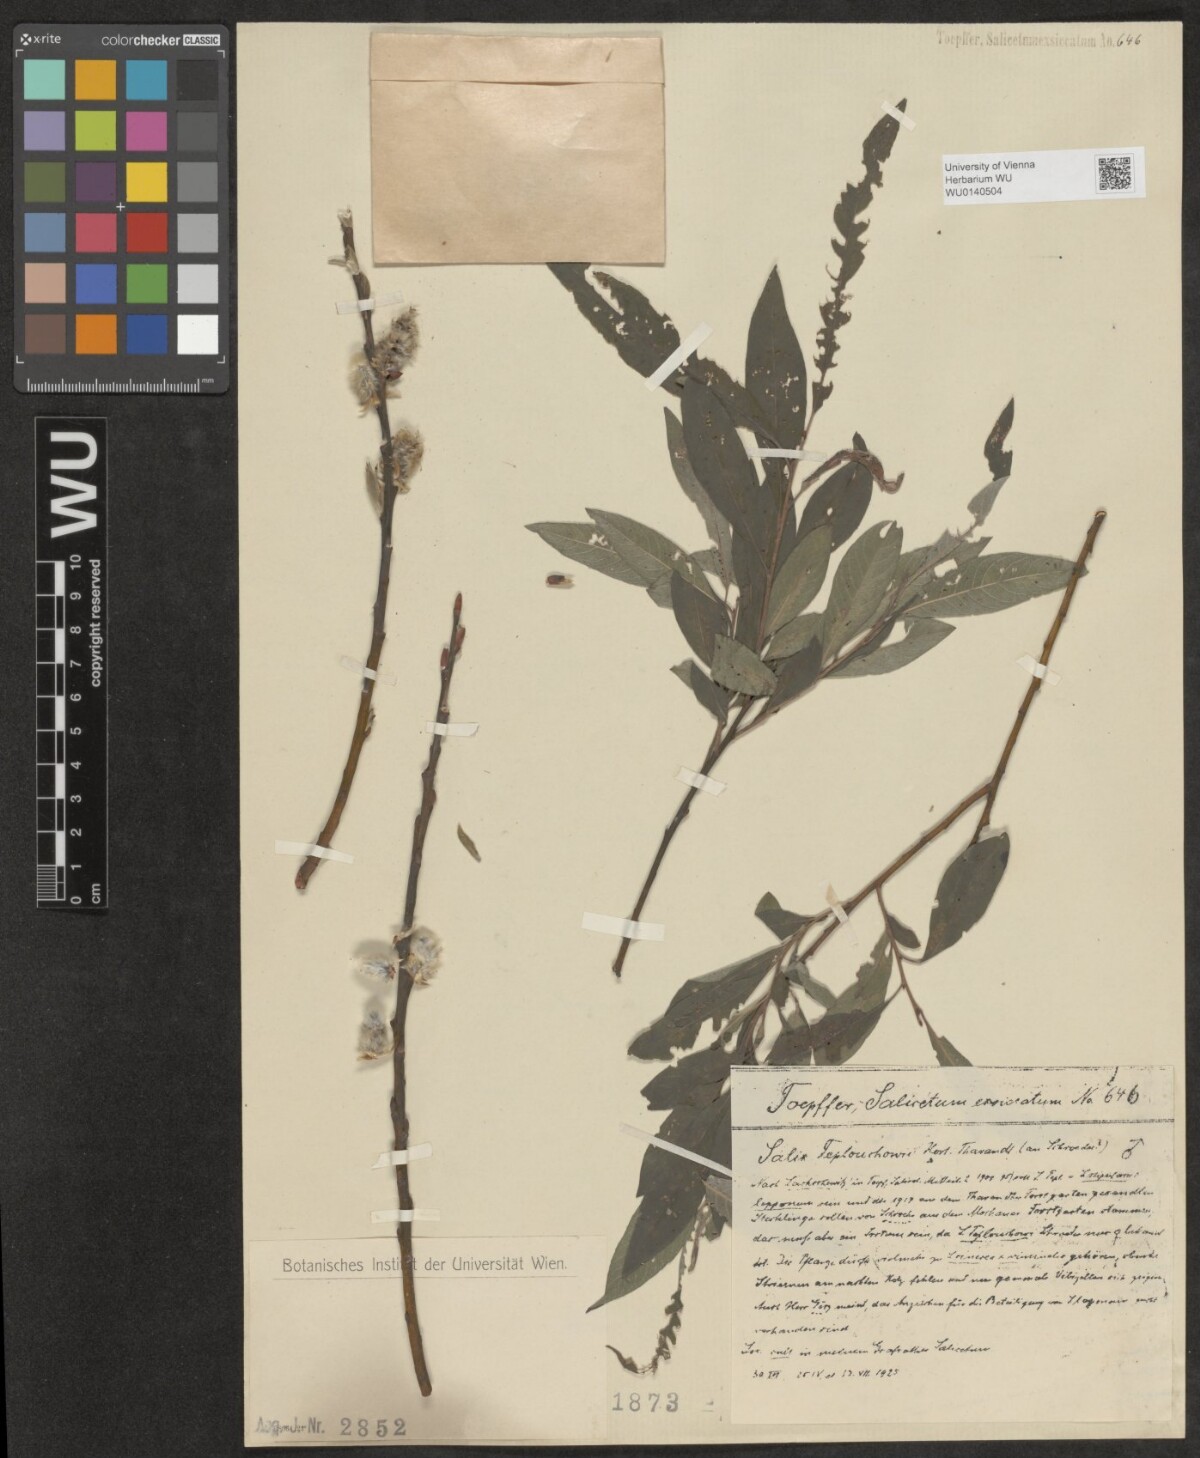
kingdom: Plantae
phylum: Tracheophyta
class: Magnoliopsida
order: Malpighiales
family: Salicaceae
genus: Salix
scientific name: Salix teplouchovii
